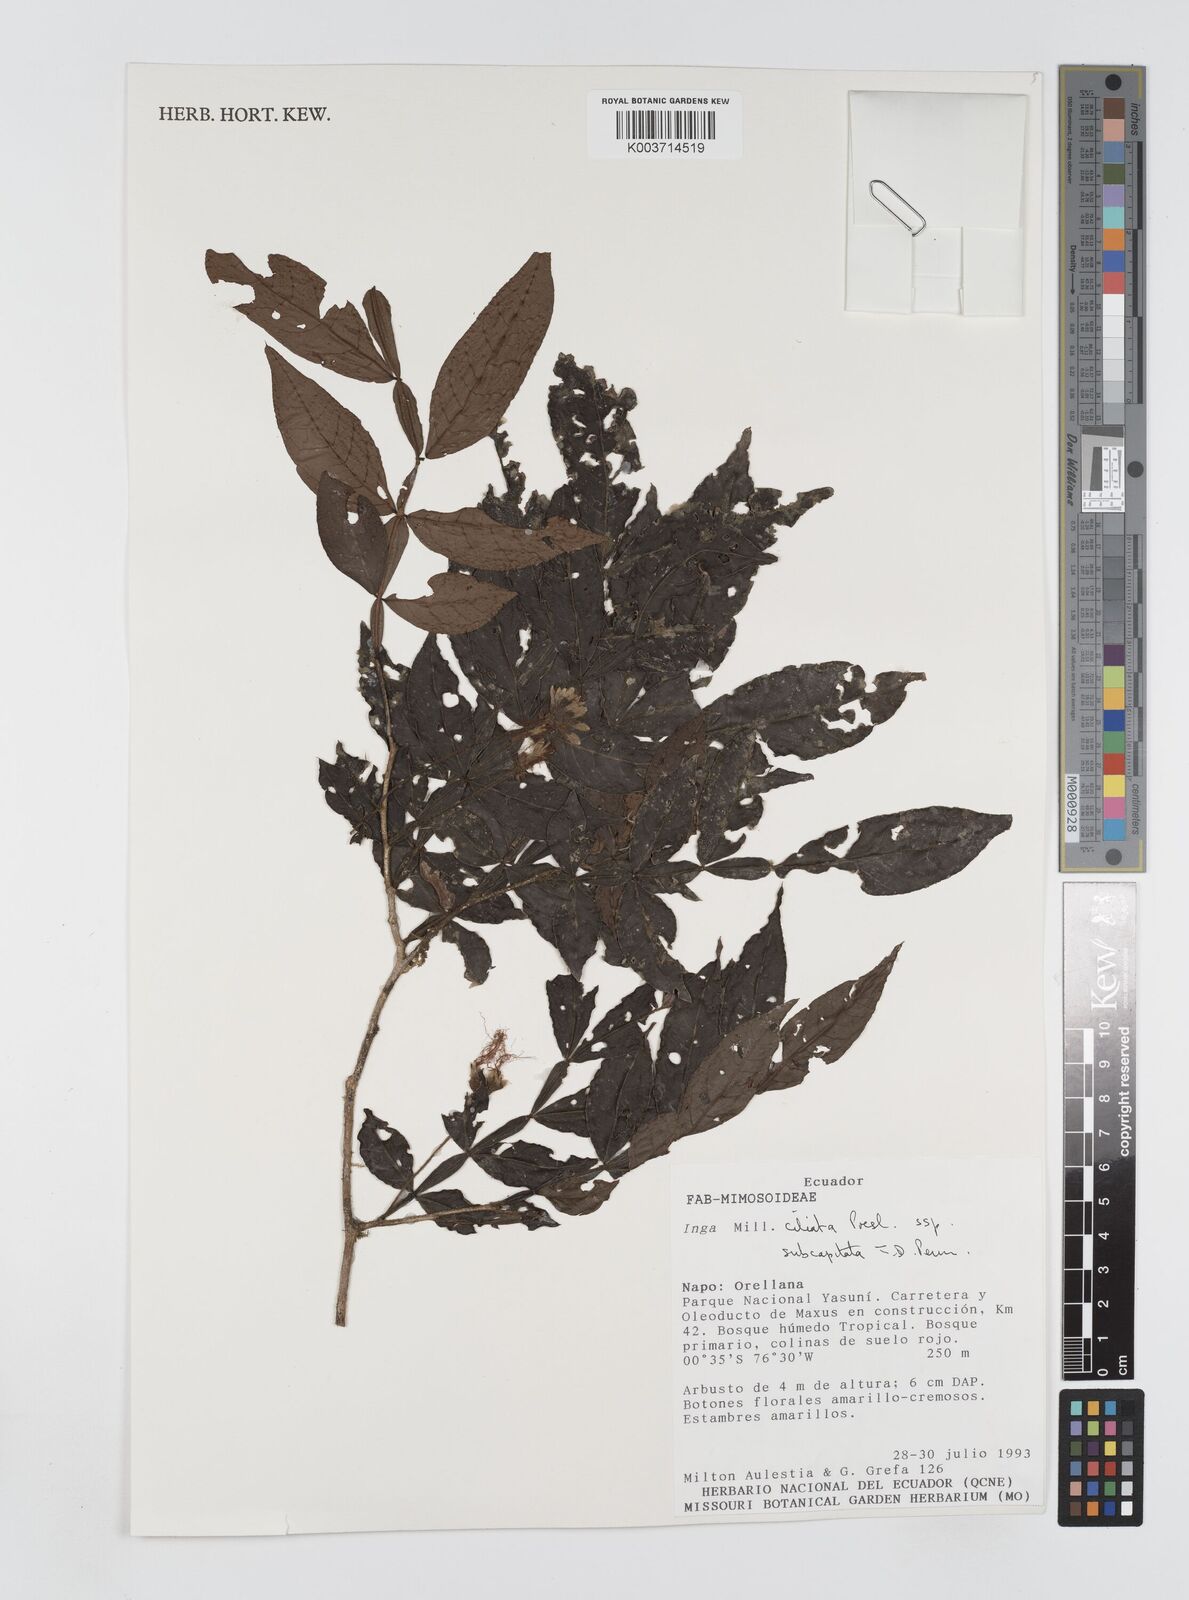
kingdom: Plantae
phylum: Tracheophyta
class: Magnoliopsida
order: Fabales
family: Fabaceae
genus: Inga
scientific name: Inga ciliata
